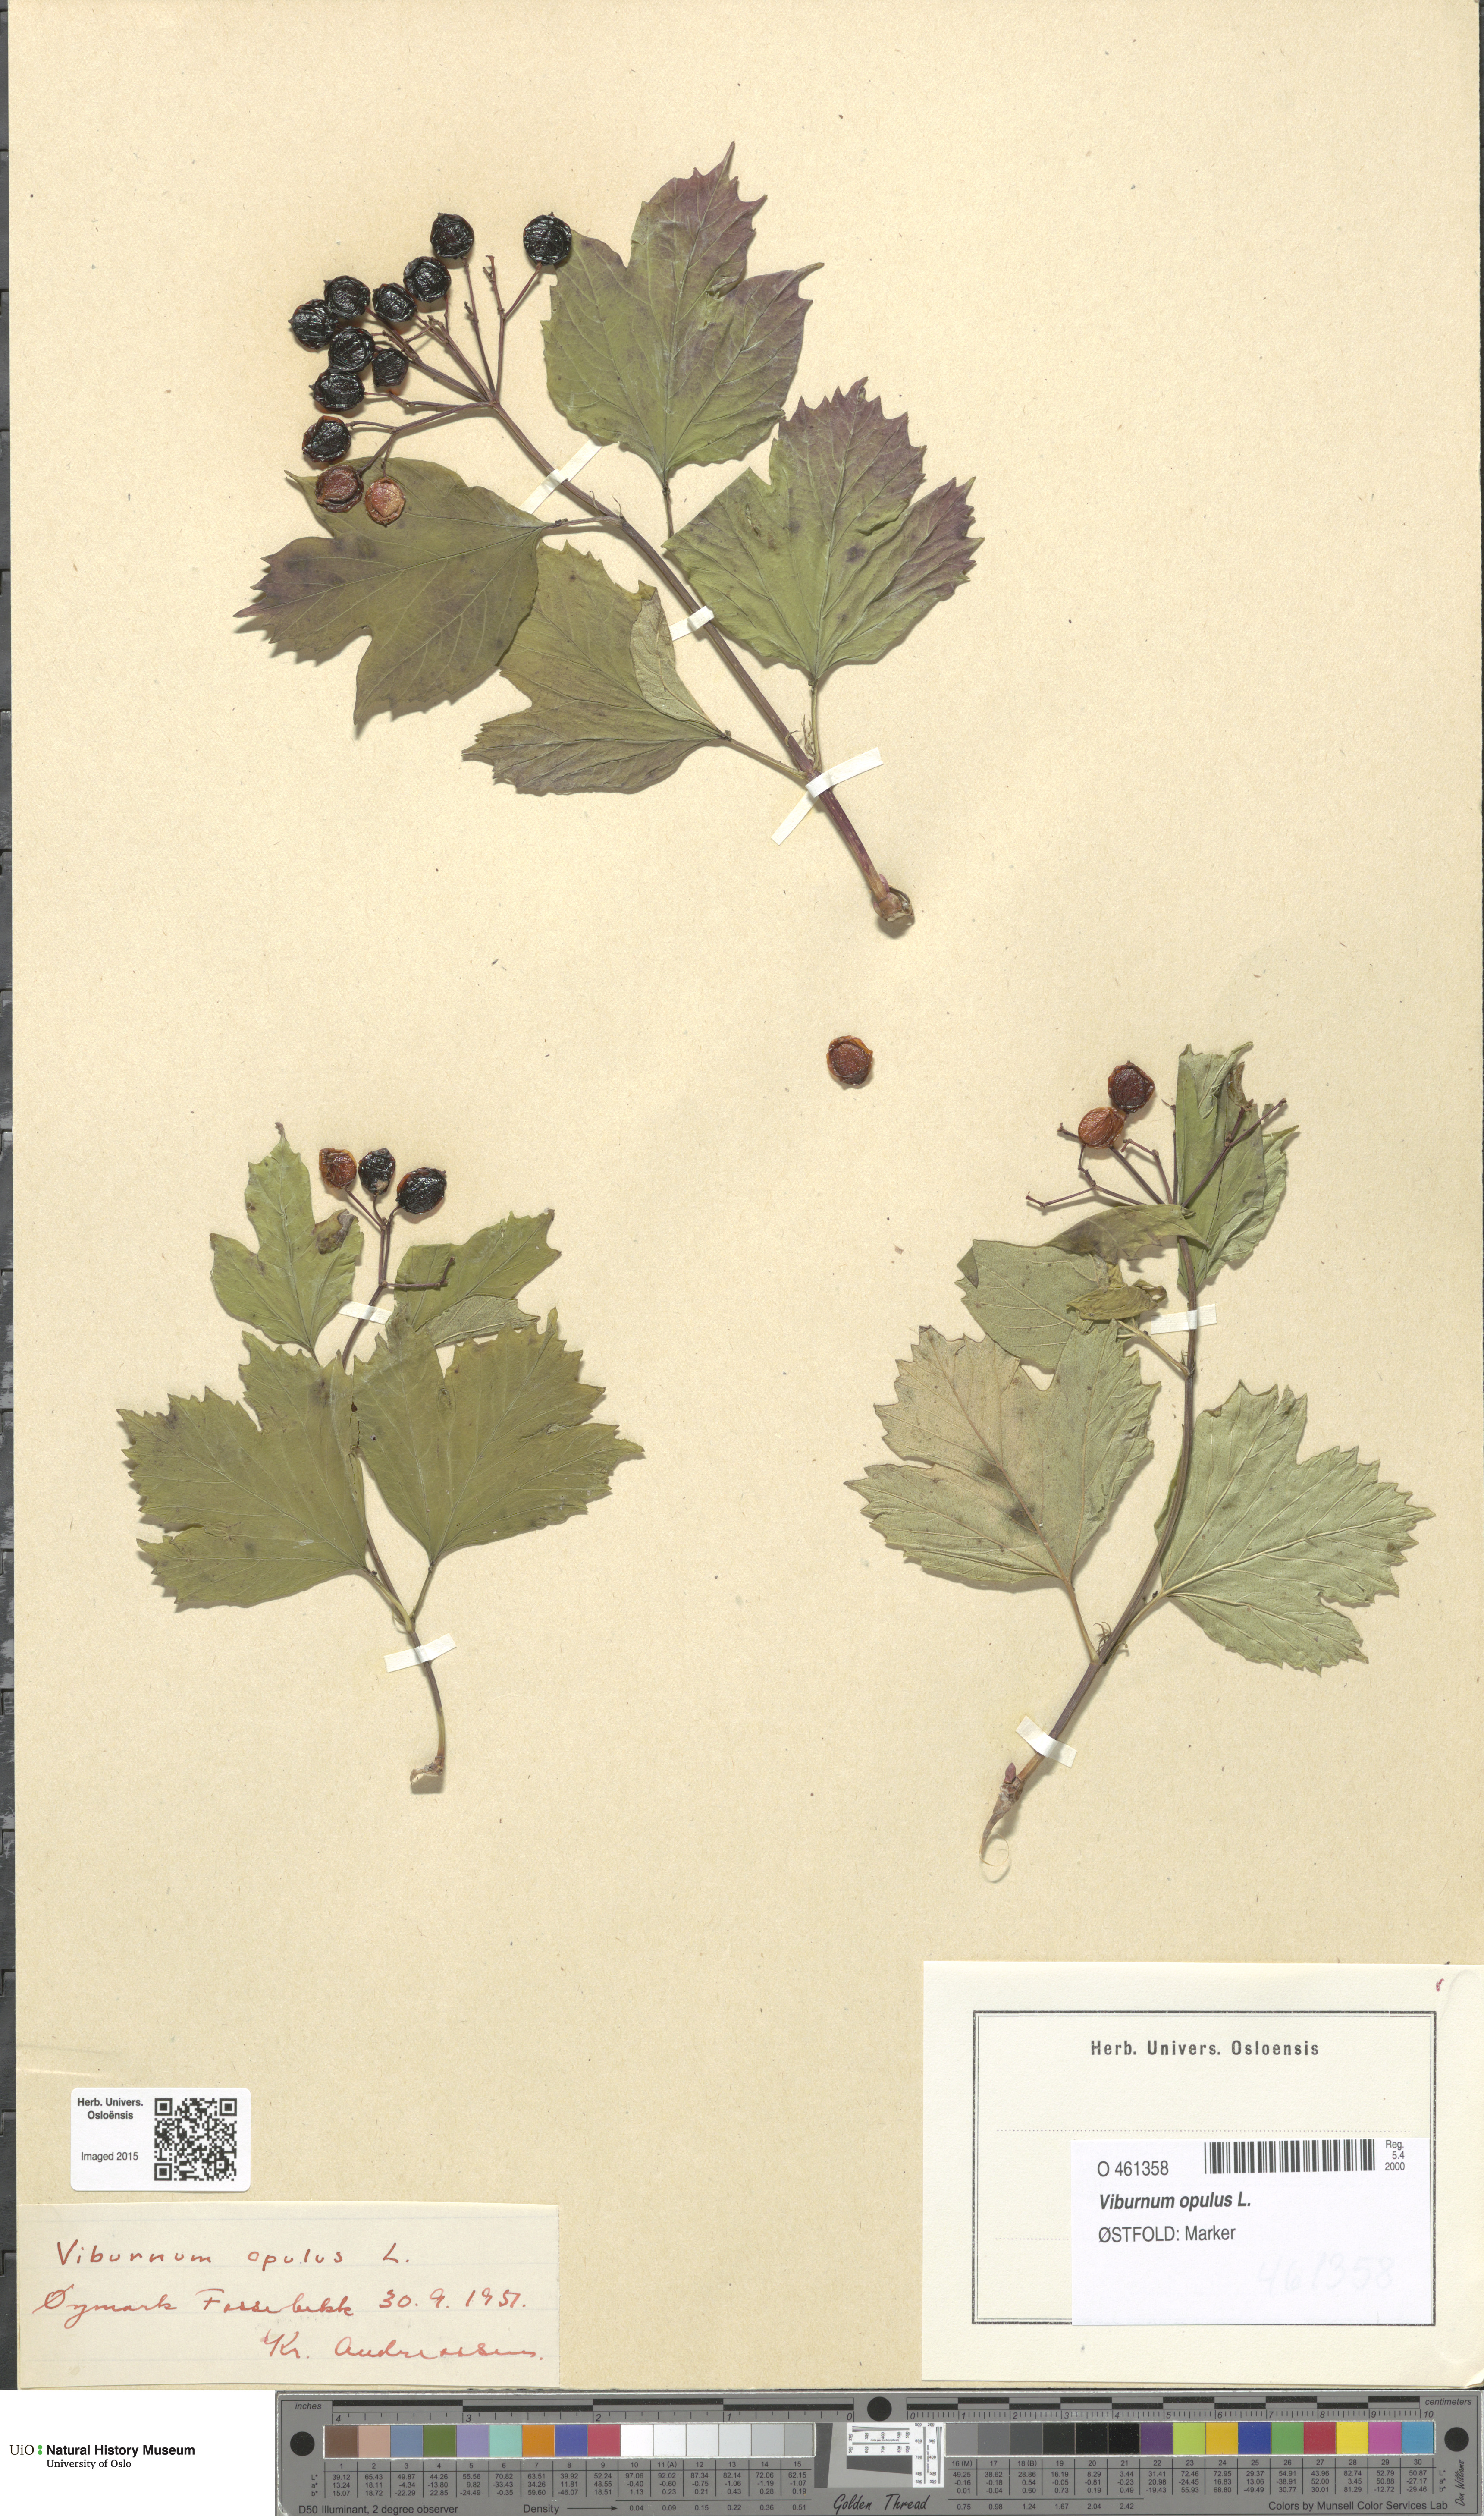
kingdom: Plantae
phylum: Tracheophyta
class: Magnoliopsida
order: Dipsacales
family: Viburnaceae
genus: Viburnum
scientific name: Viburnum opulus
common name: Guelder-rose
